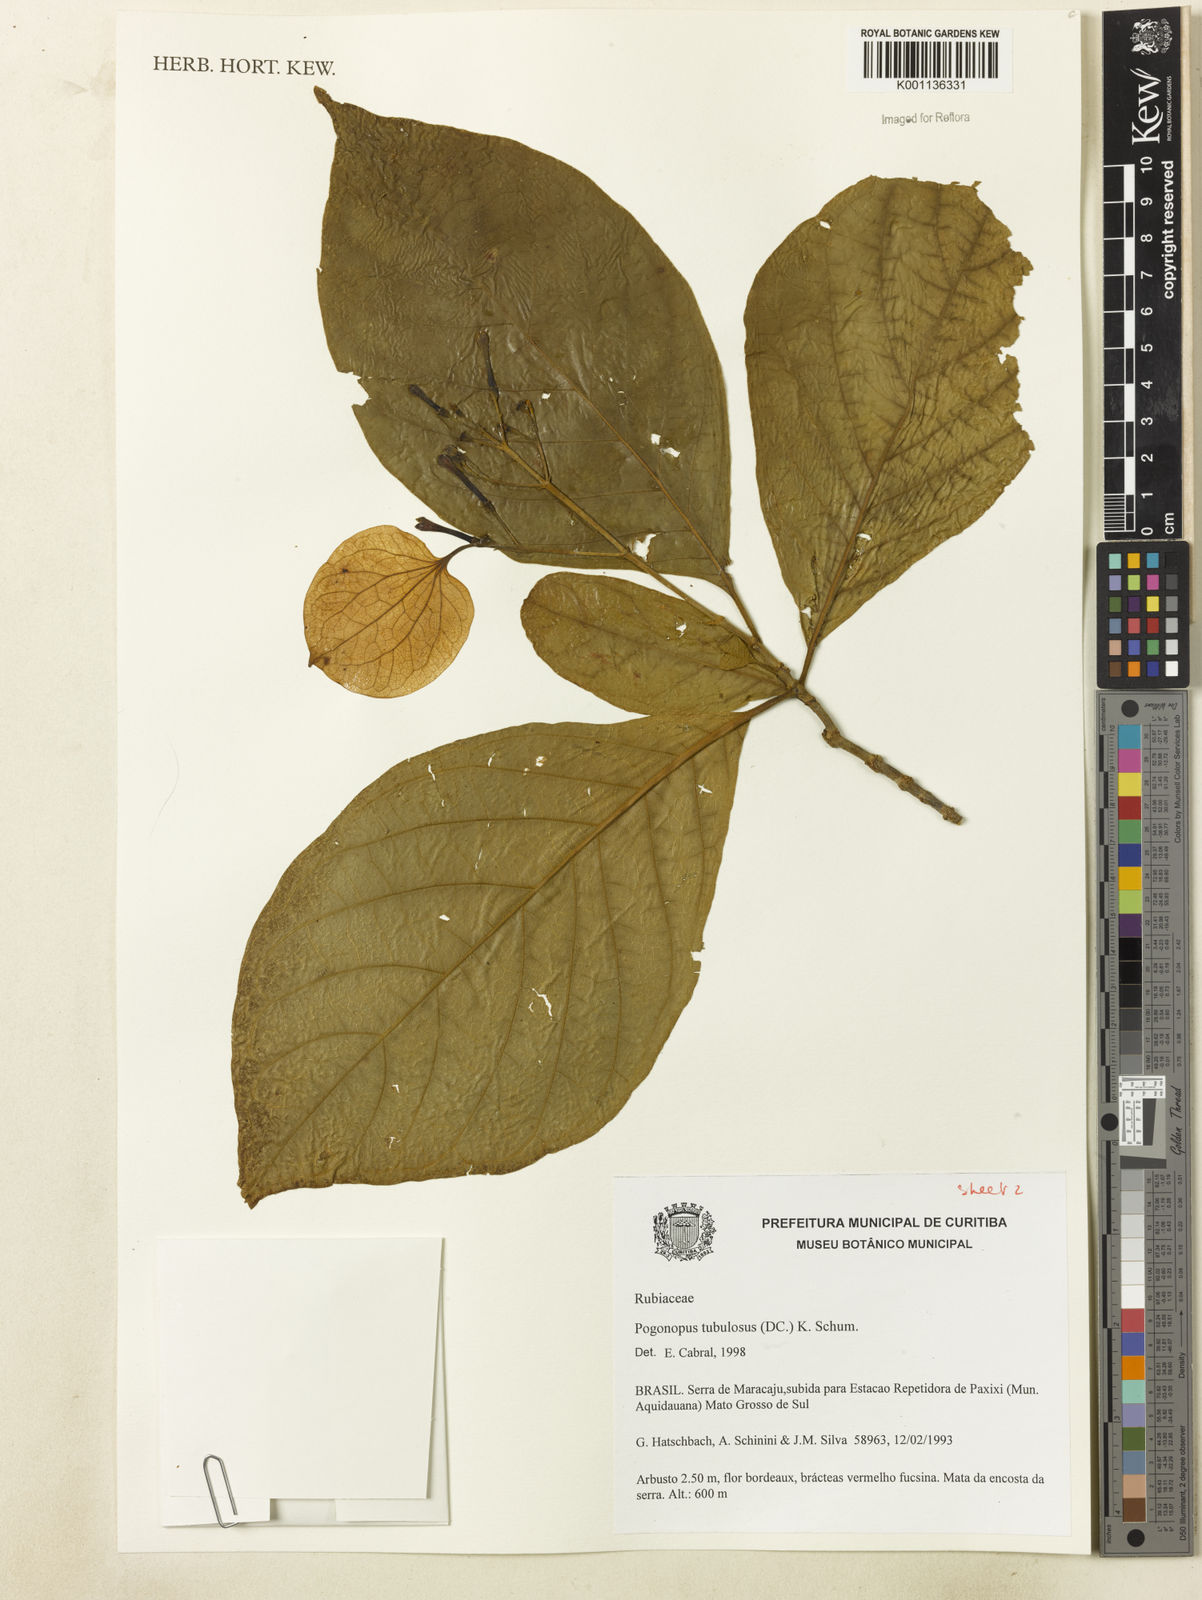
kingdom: Plantae
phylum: Tracheophyta
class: Magnoliopsida
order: Gentianales
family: Rubiaceae
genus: Pogonopus
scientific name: Pogonopus tubulosus
